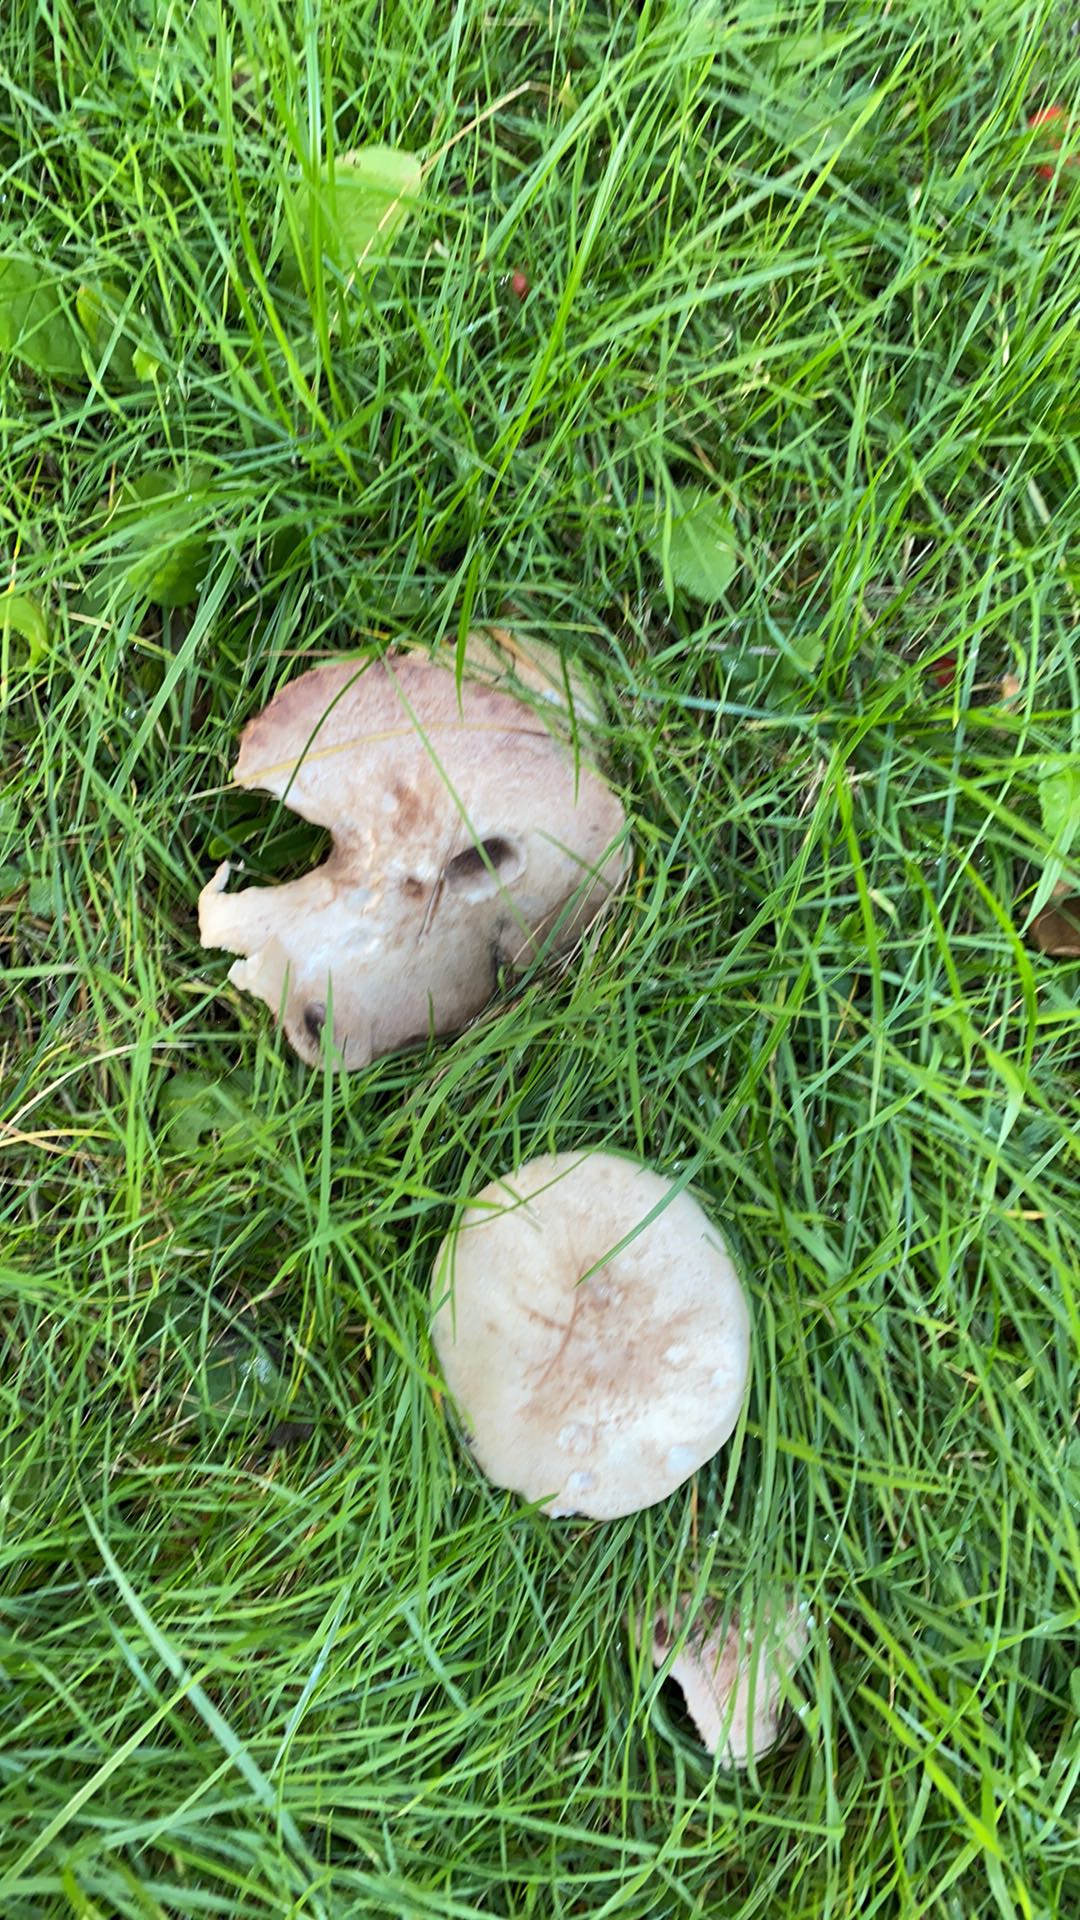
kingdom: Fungi
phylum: Basidiomycota
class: Agaricomycetes
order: Agaricales
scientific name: Agaricales
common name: champignonordenen
